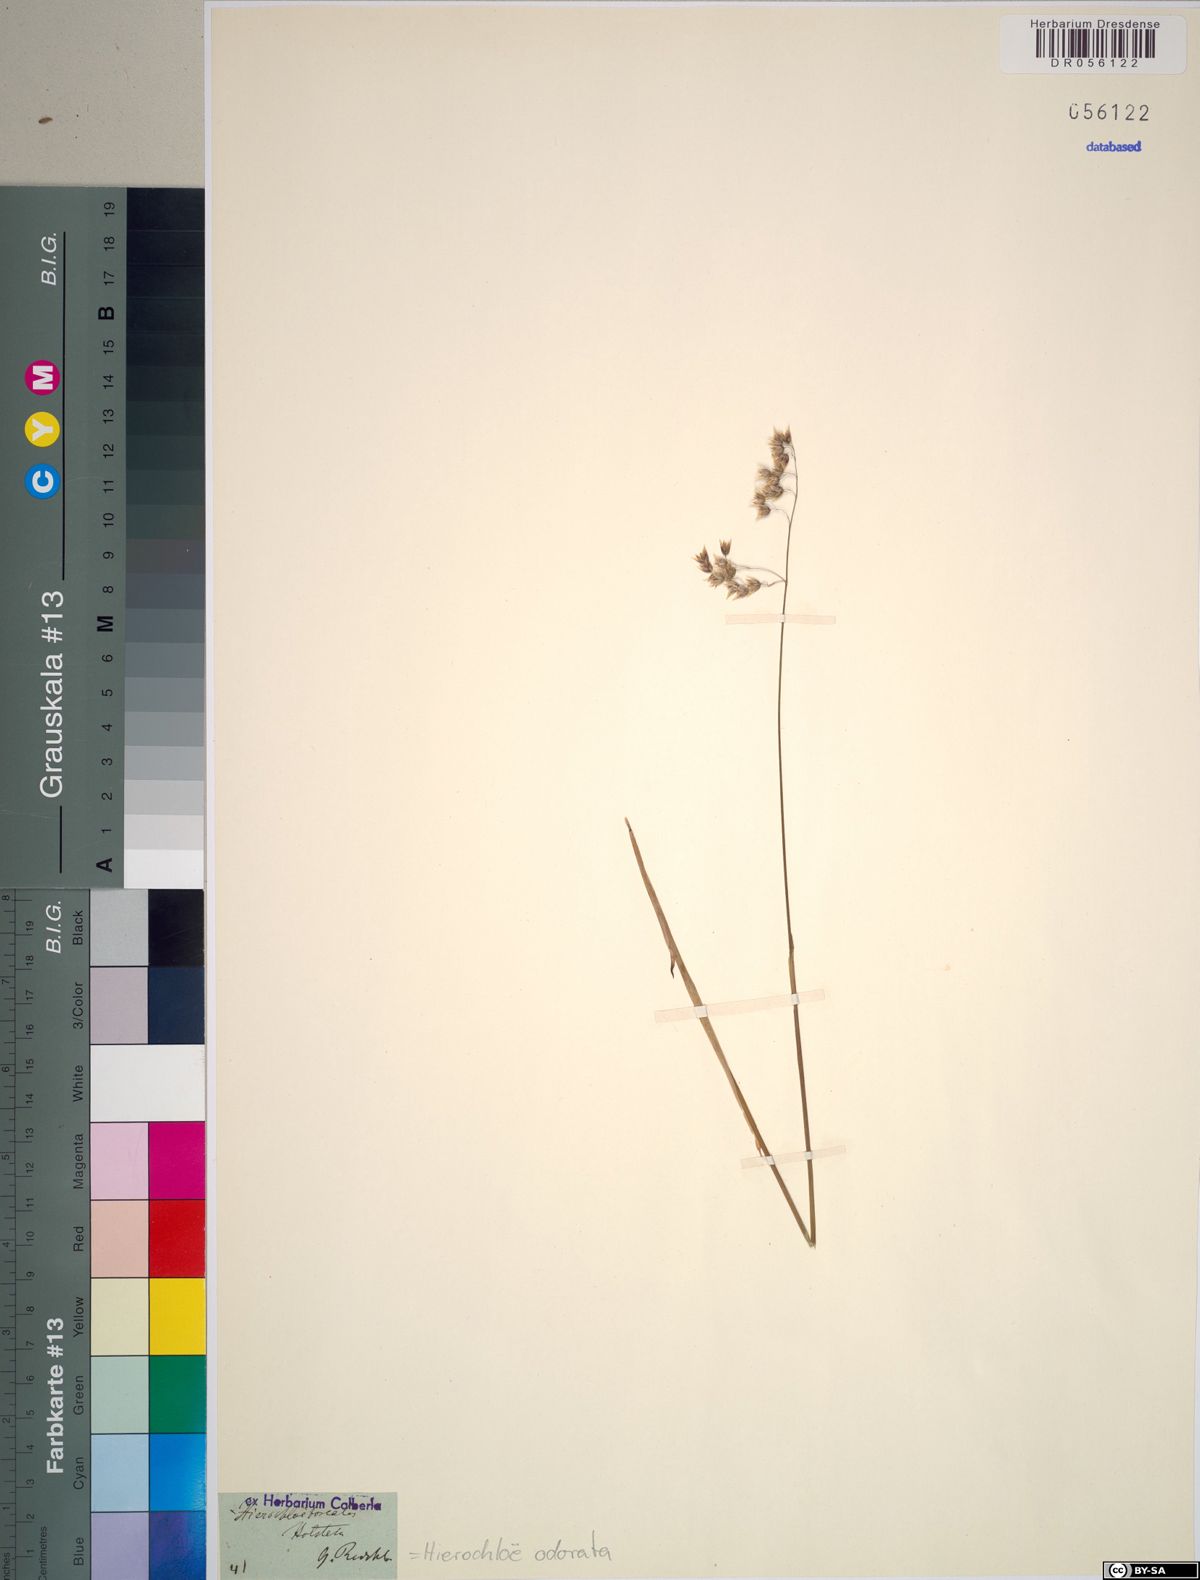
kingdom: Plantae
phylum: Tracheophyta
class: Liliopsida
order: Poales
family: Poaceae
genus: Anthoxanthum
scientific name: Anthoxanthum nitens
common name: Holy grass
